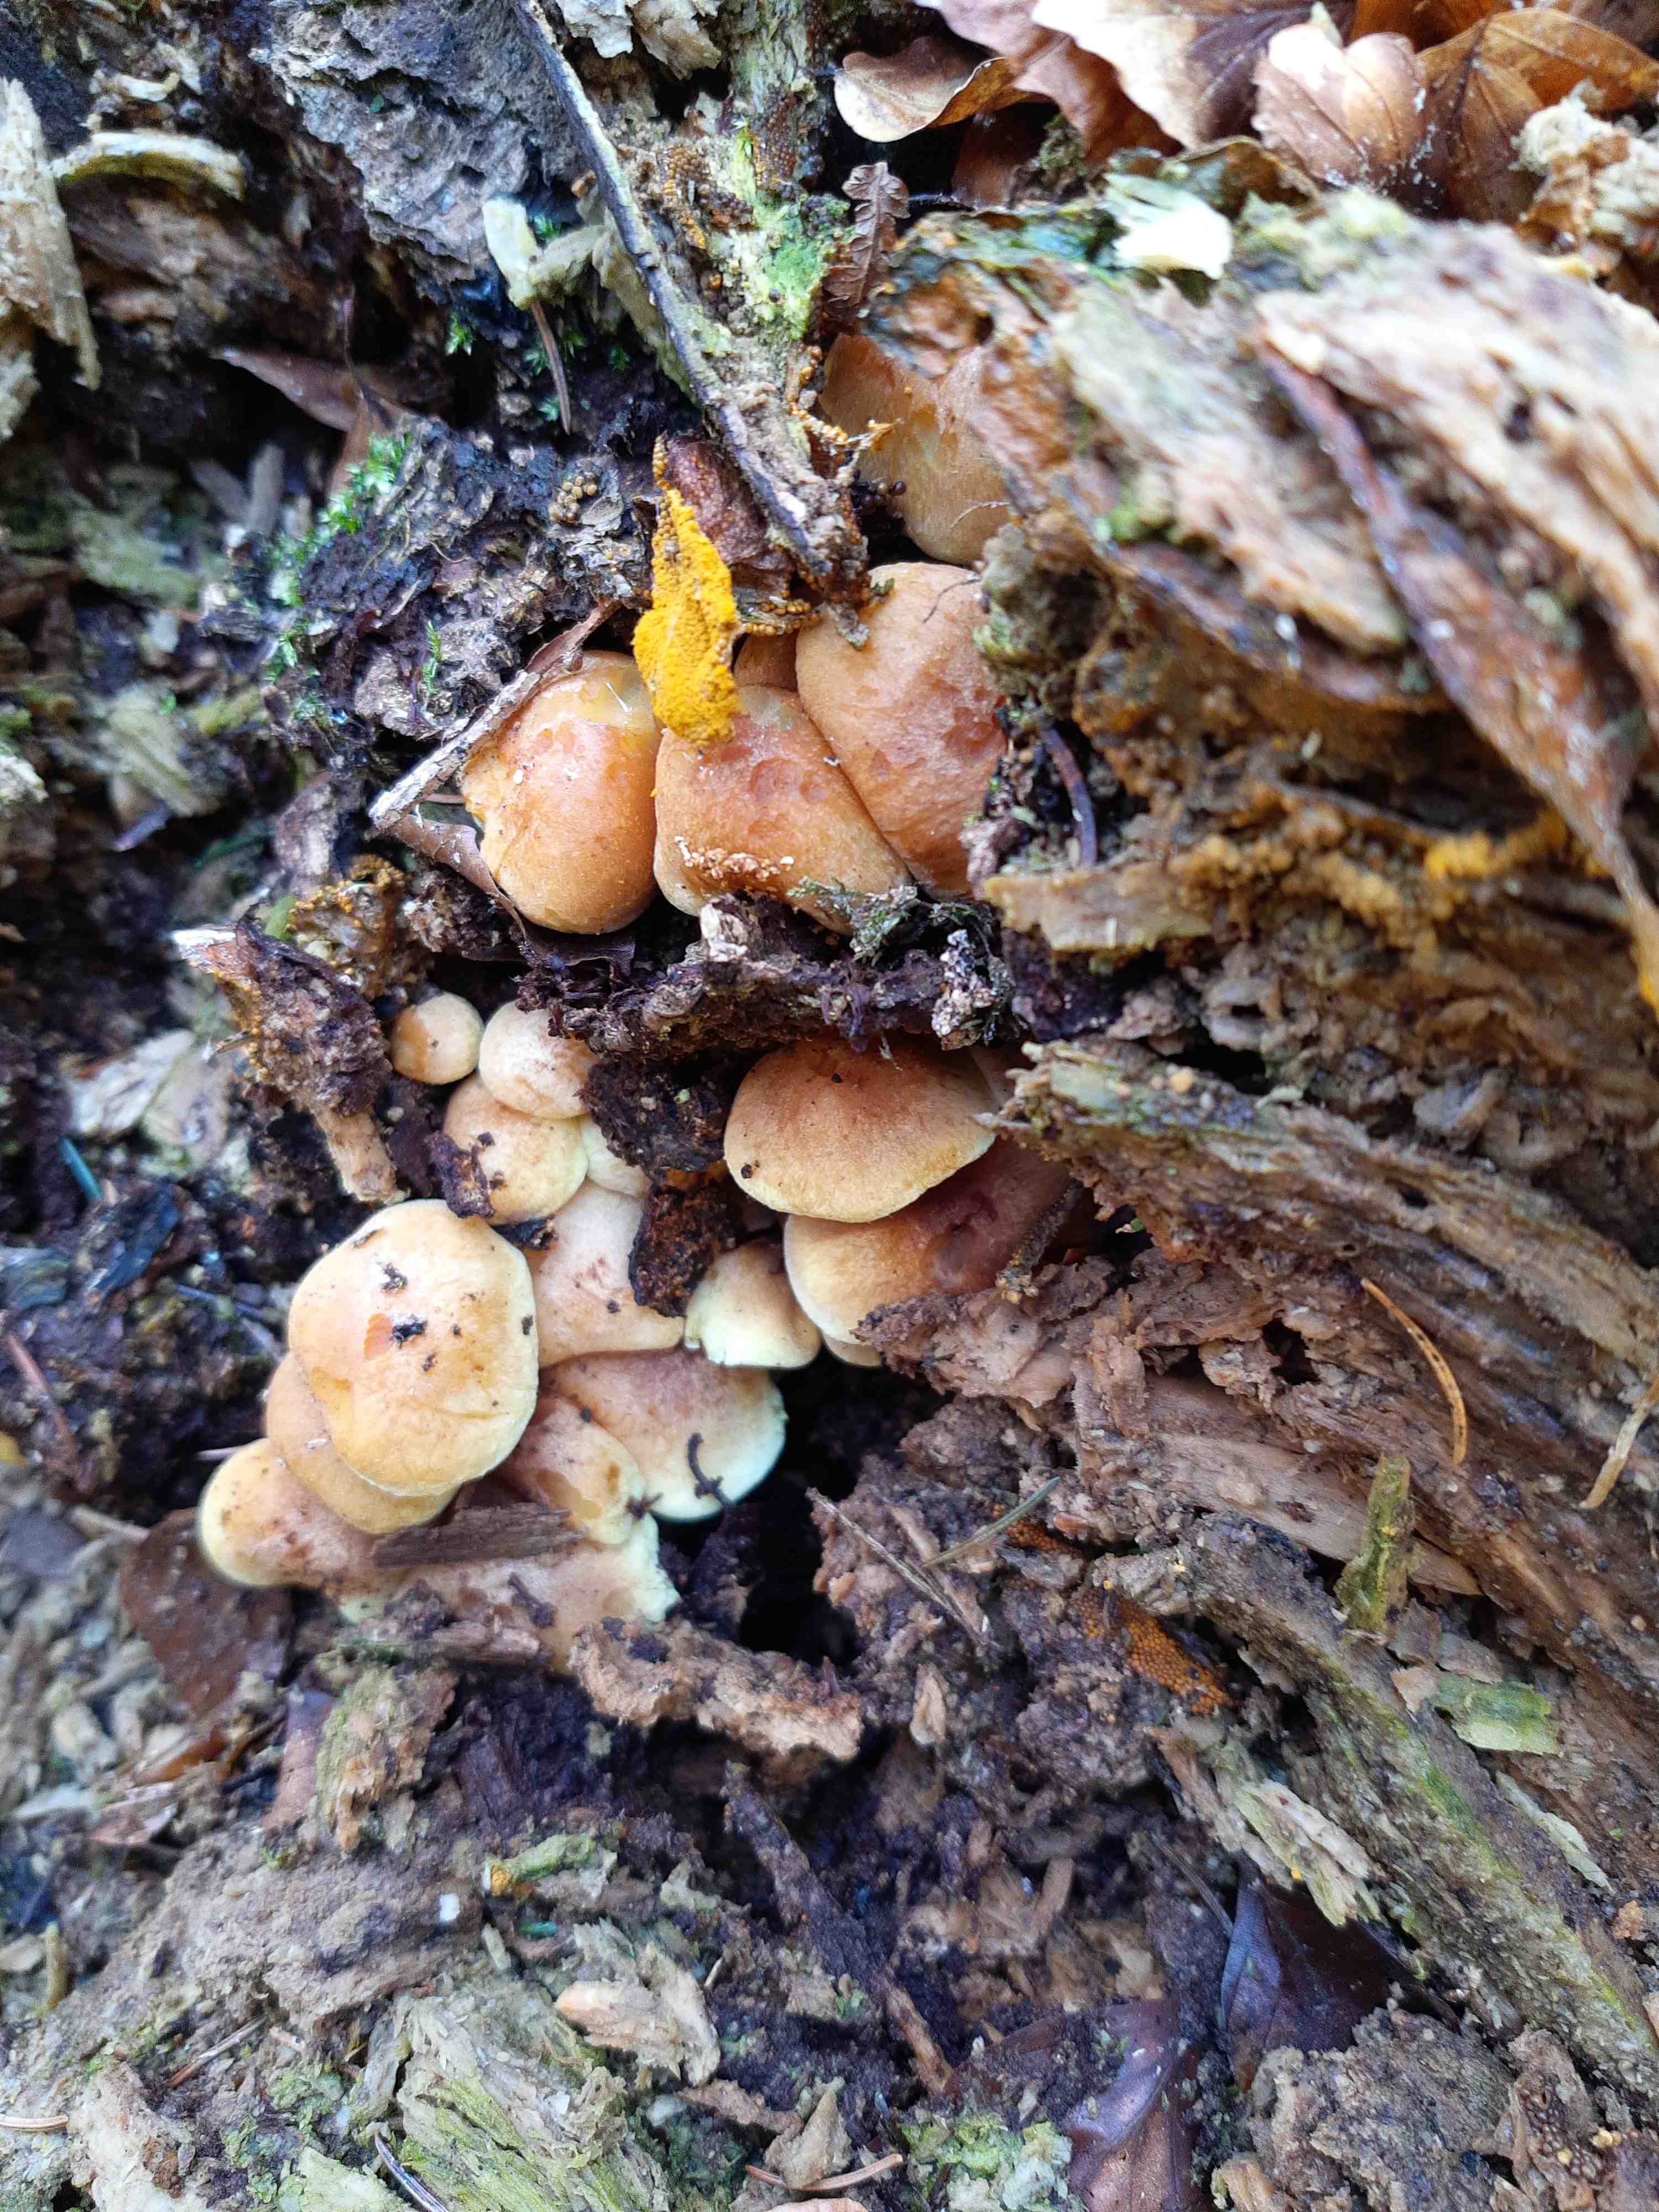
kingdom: Fungi
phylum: Basidiomycota
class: Agaricomycetes
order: Agaricales
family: Strophariaceae
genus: Hypholoma
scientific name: Hypholoma fasciculare
